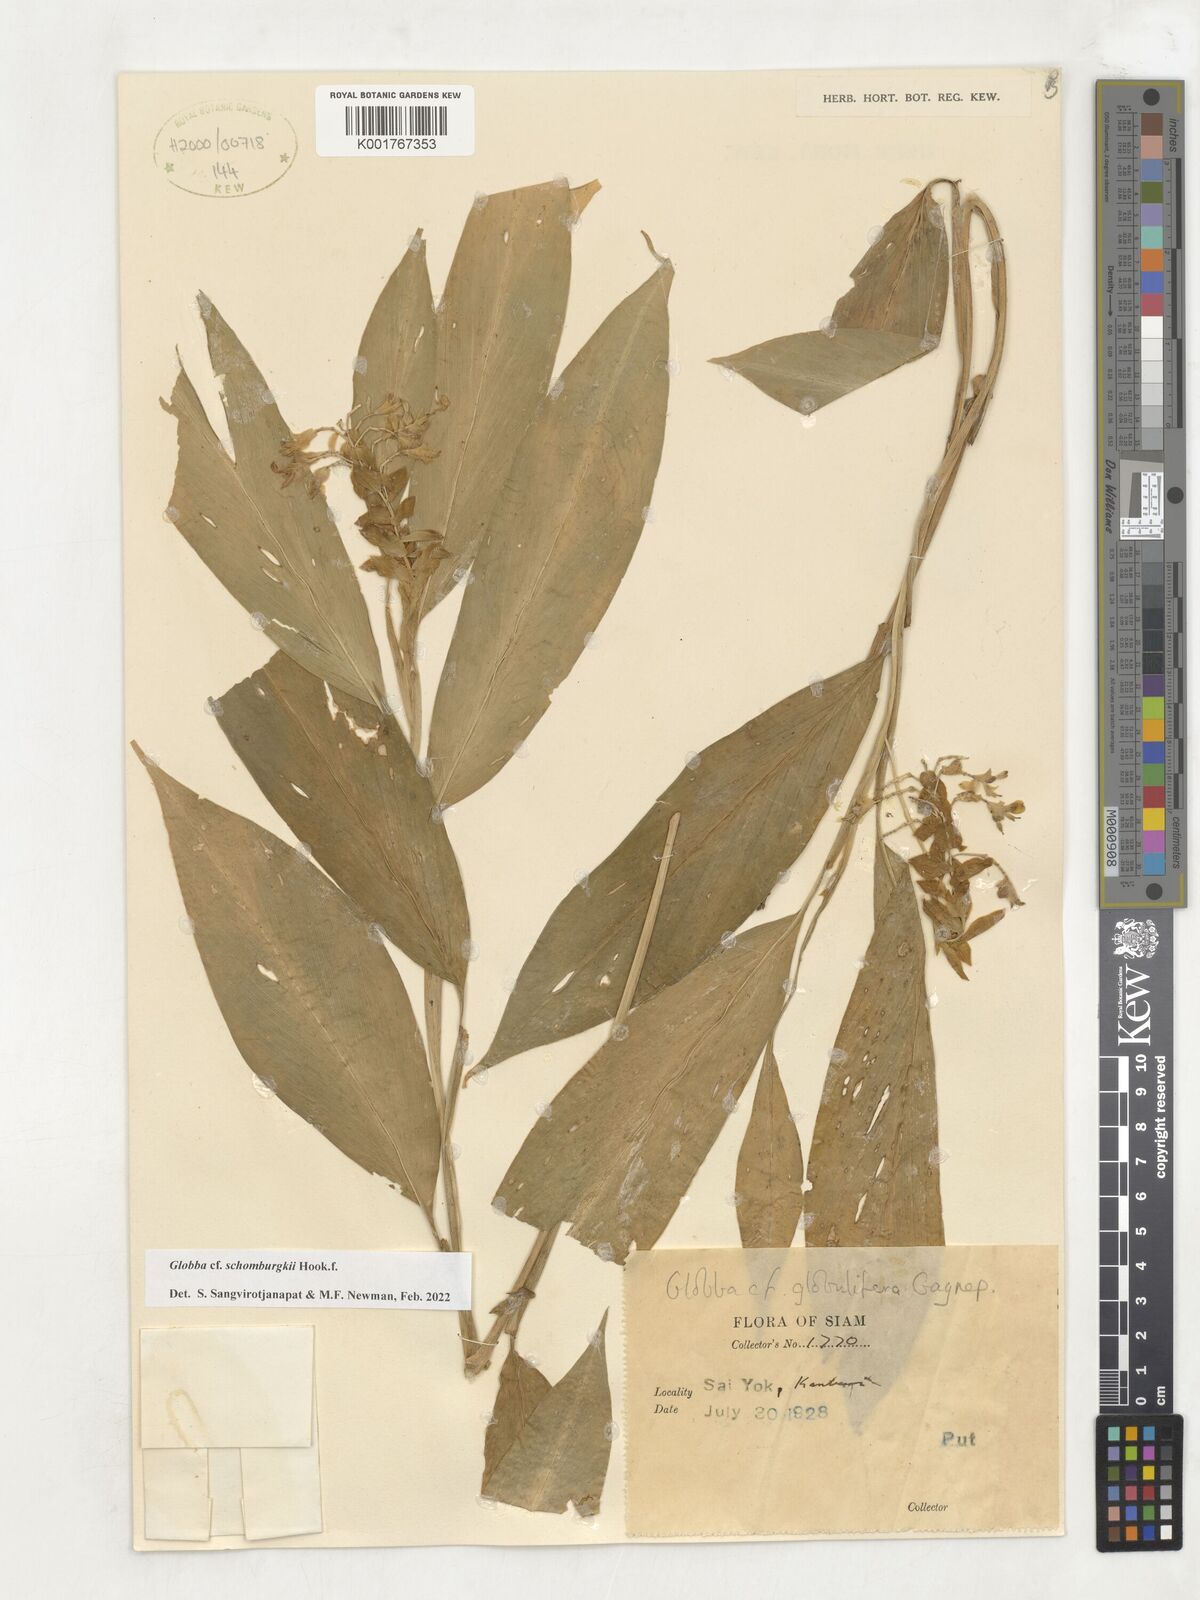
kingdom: Plantae
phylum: Tracheophyta
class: Liliopsida
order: Zingiberales
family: Zingiberaceae
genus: Globba
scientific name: Globba schomburgkii
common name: Dancing girl ginger
